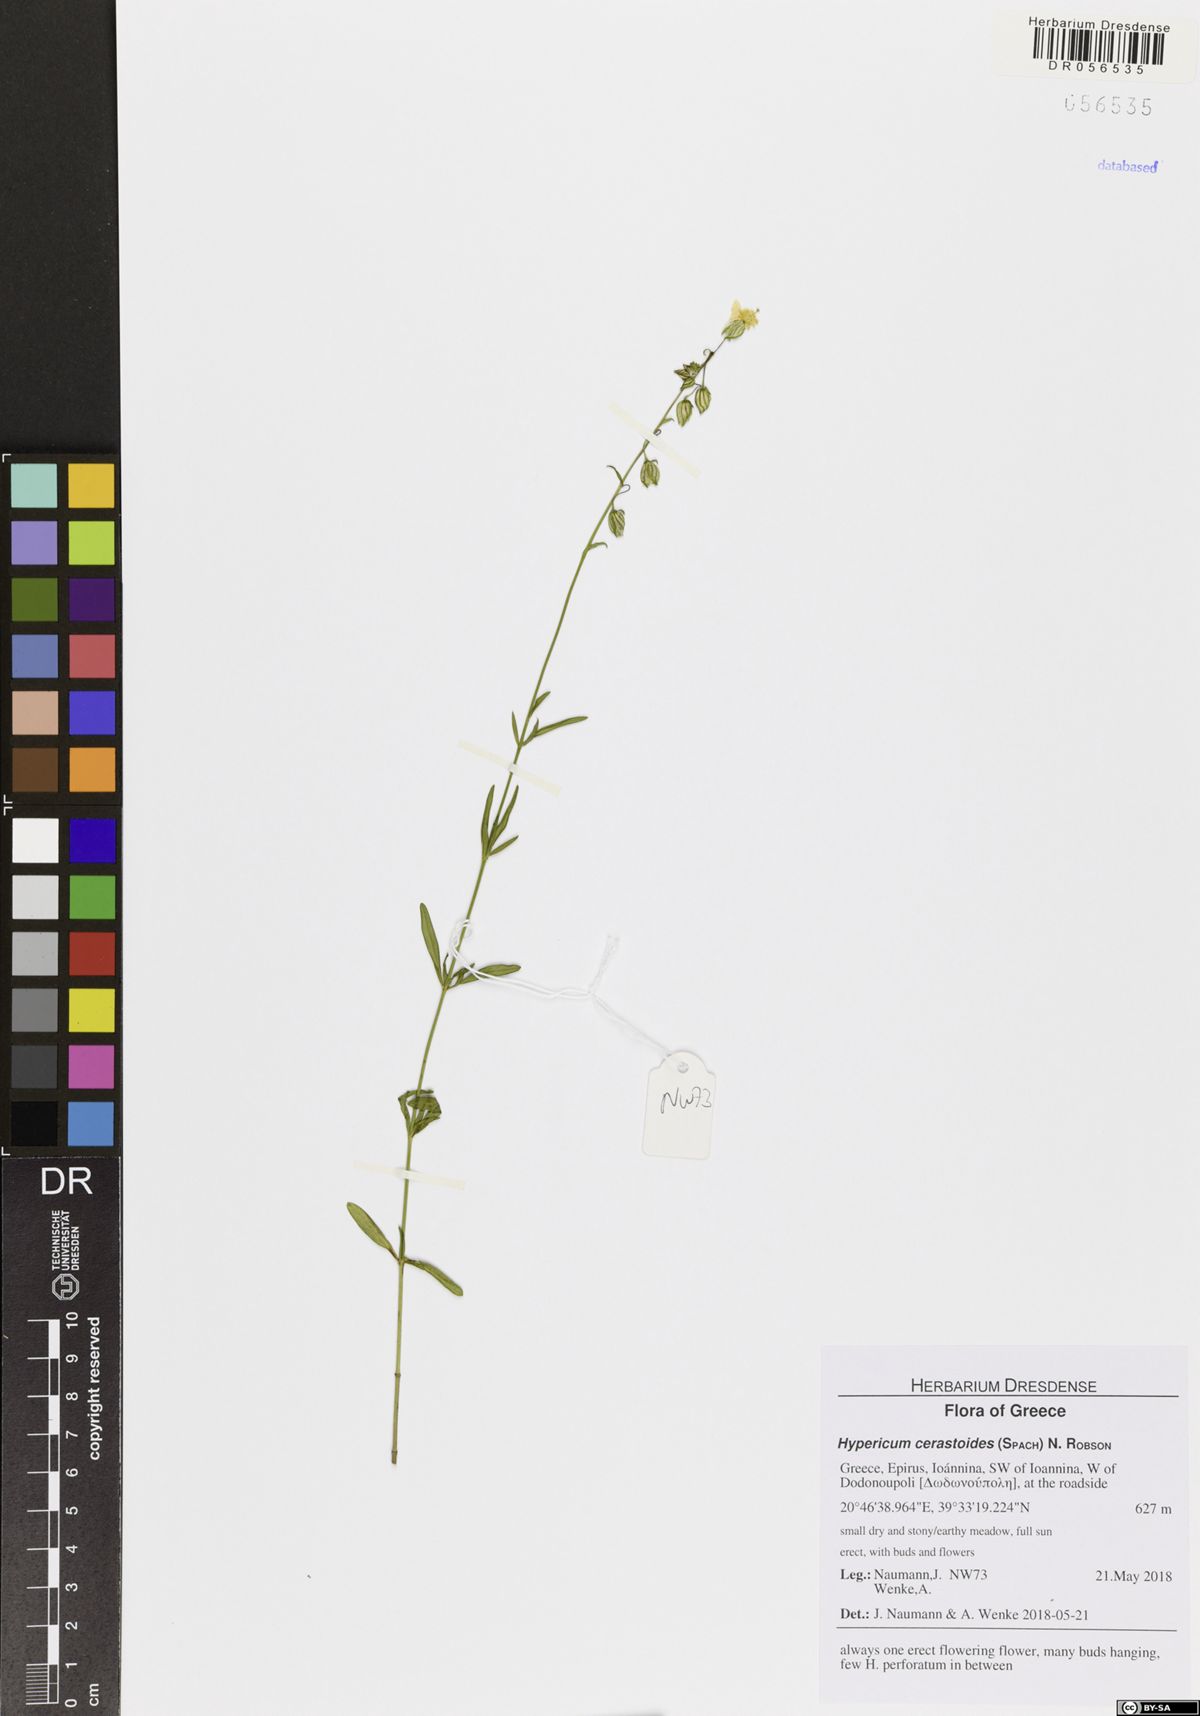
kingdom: Plantae
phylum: Tracheophyta
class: Magnoliopsida
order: Malpighiales
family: Hypericaceae
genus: Hypericum
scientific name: Hypericum cerastoides
